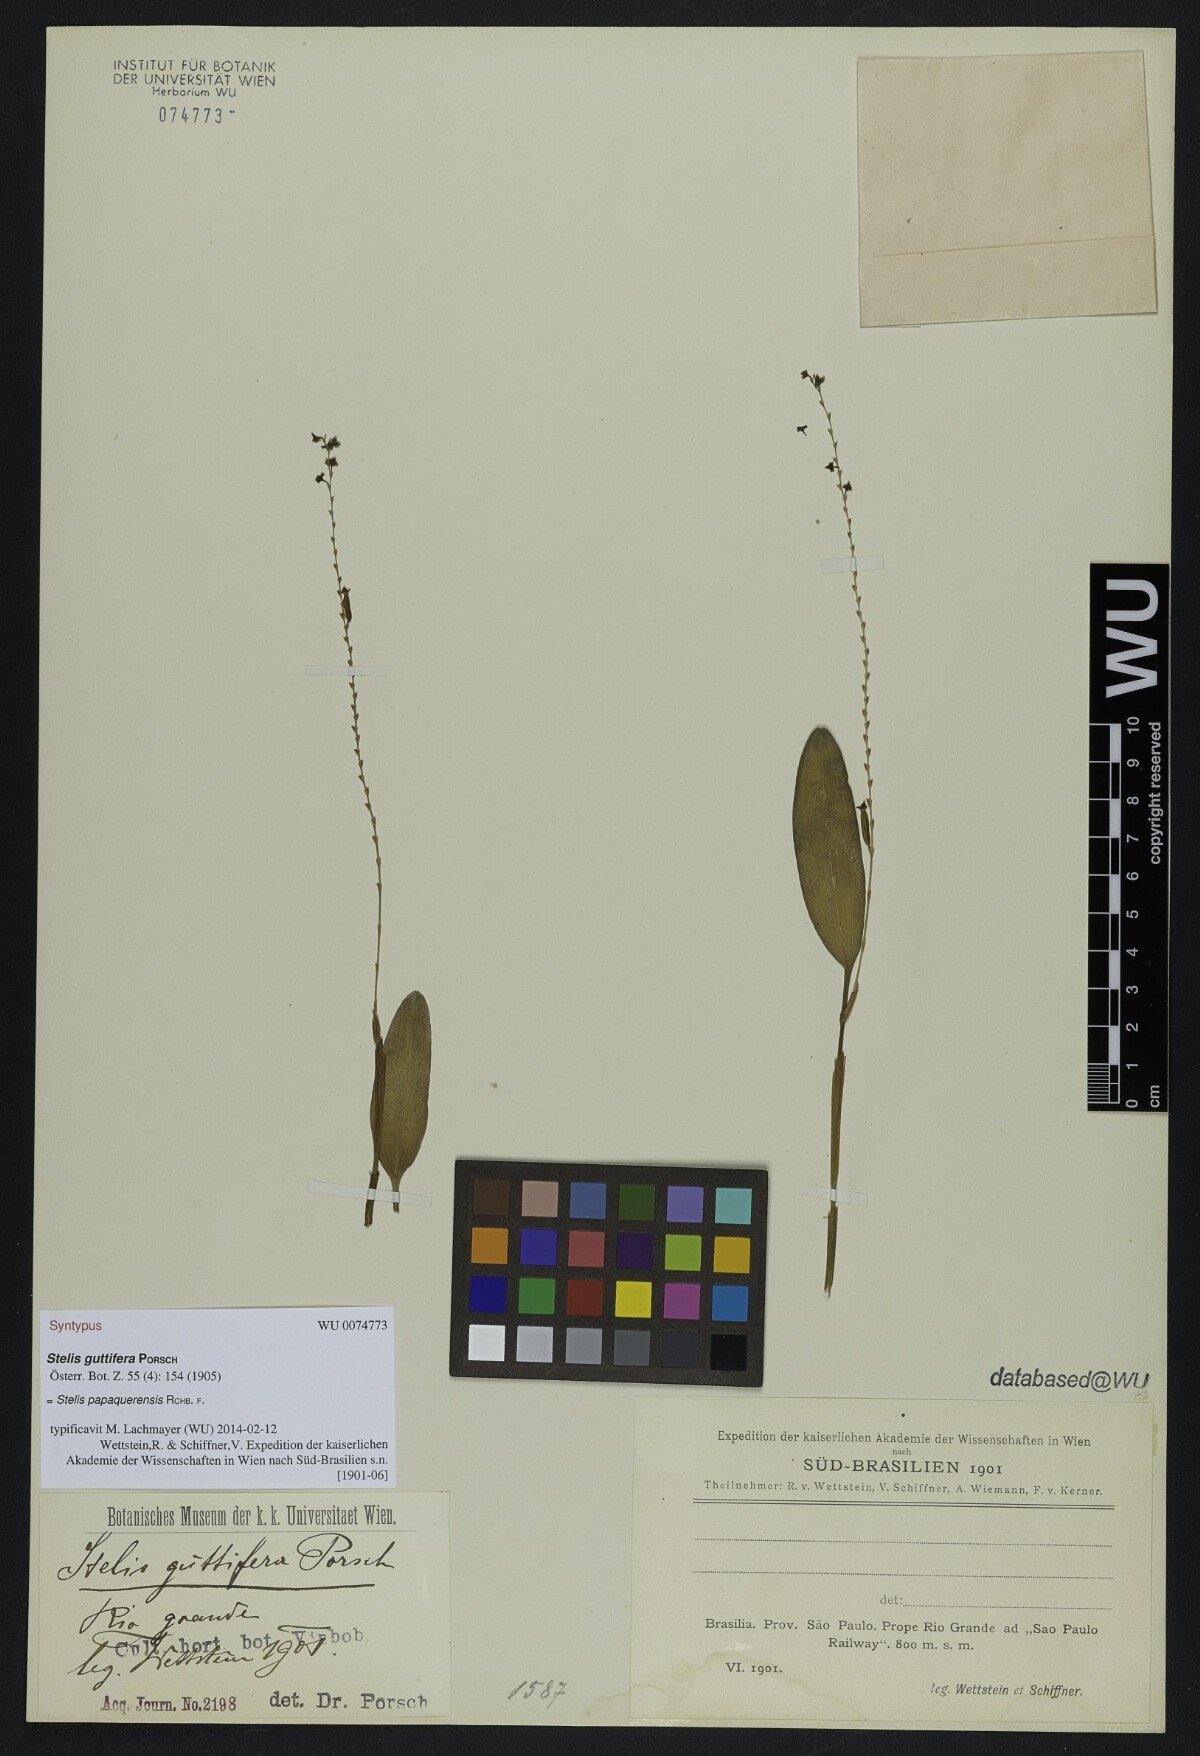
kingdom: Plantae
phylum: Tracheophyta
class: Liliopsida
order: Asparagales
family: Orchidaceae
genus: Stelis
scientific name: Stelis papaquerensis
